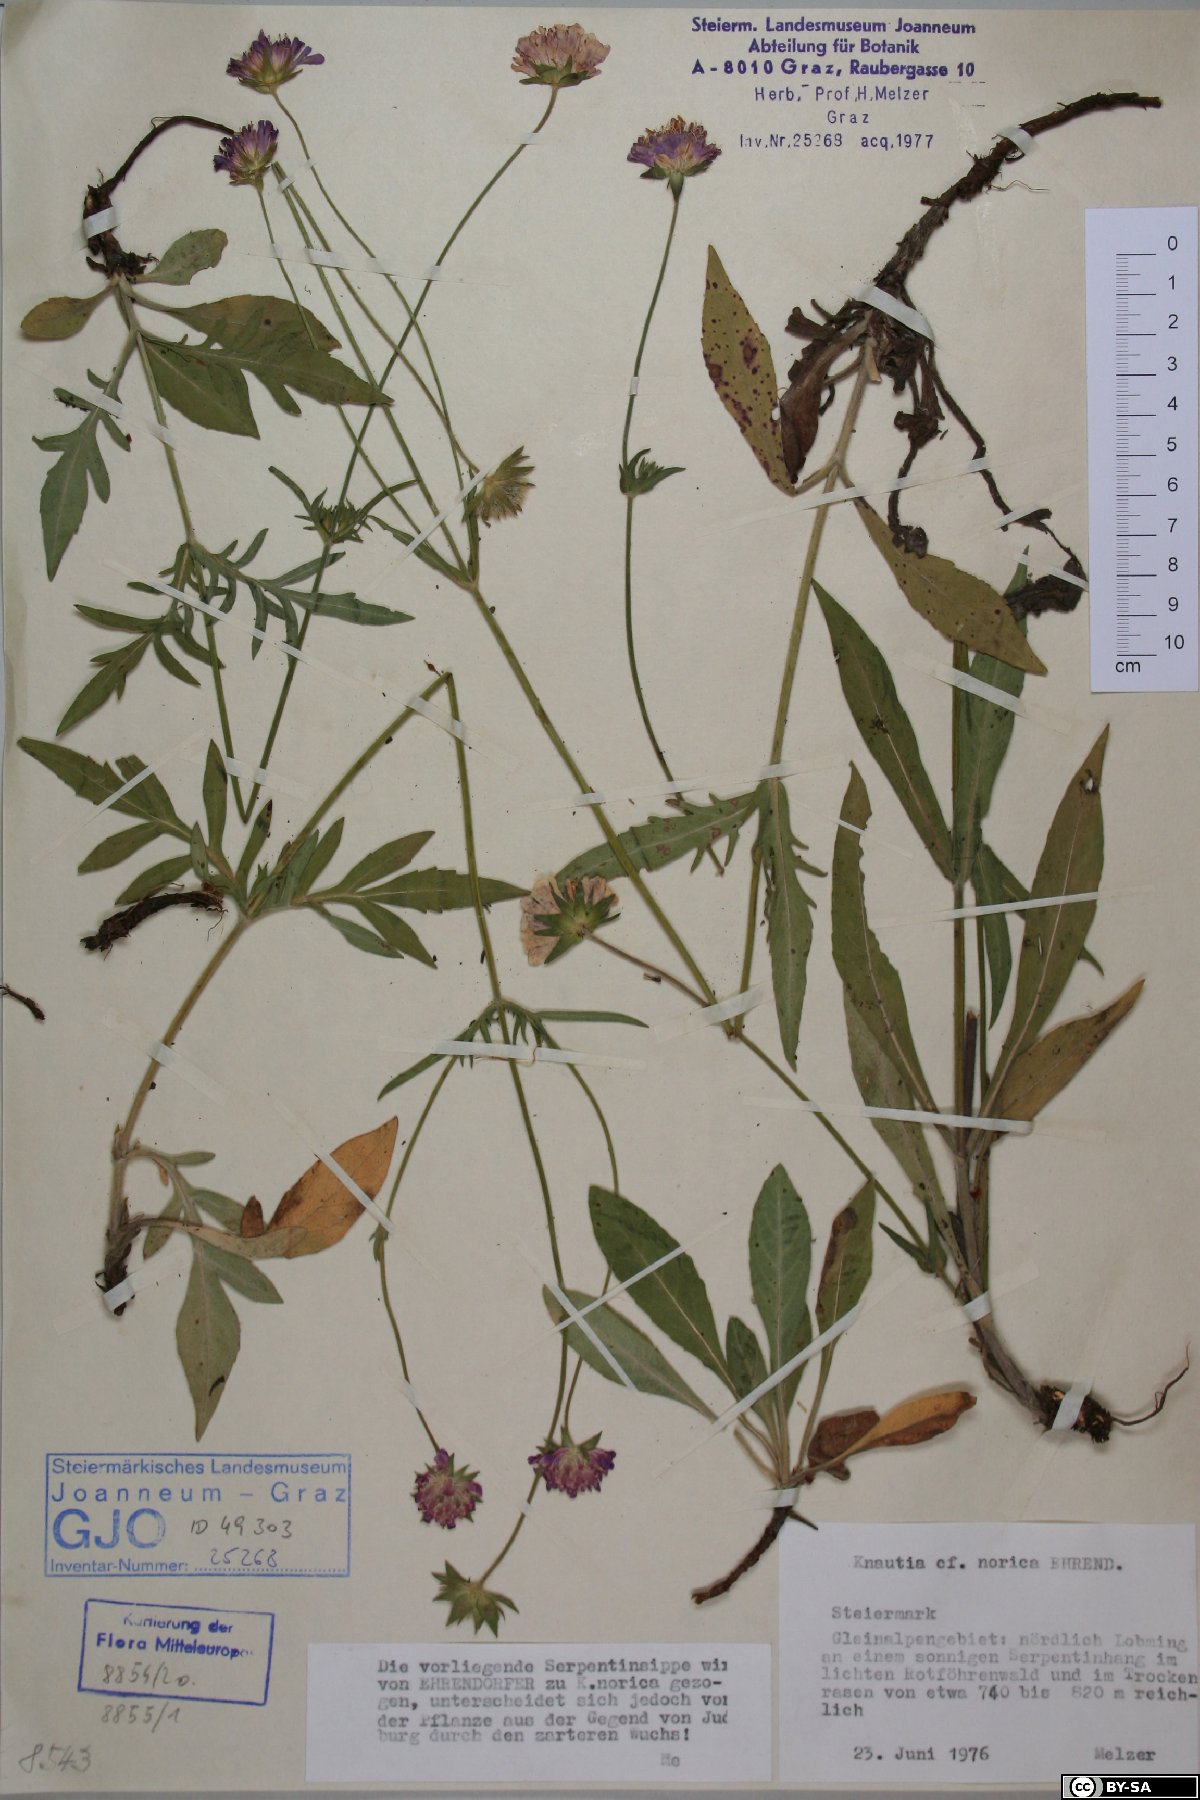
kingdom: Plantae
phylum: Tracheophyta
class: Magnoliopsida
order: Dipsacales
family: Caprifoliaceae
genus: Knautia
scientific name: Knautia norica
